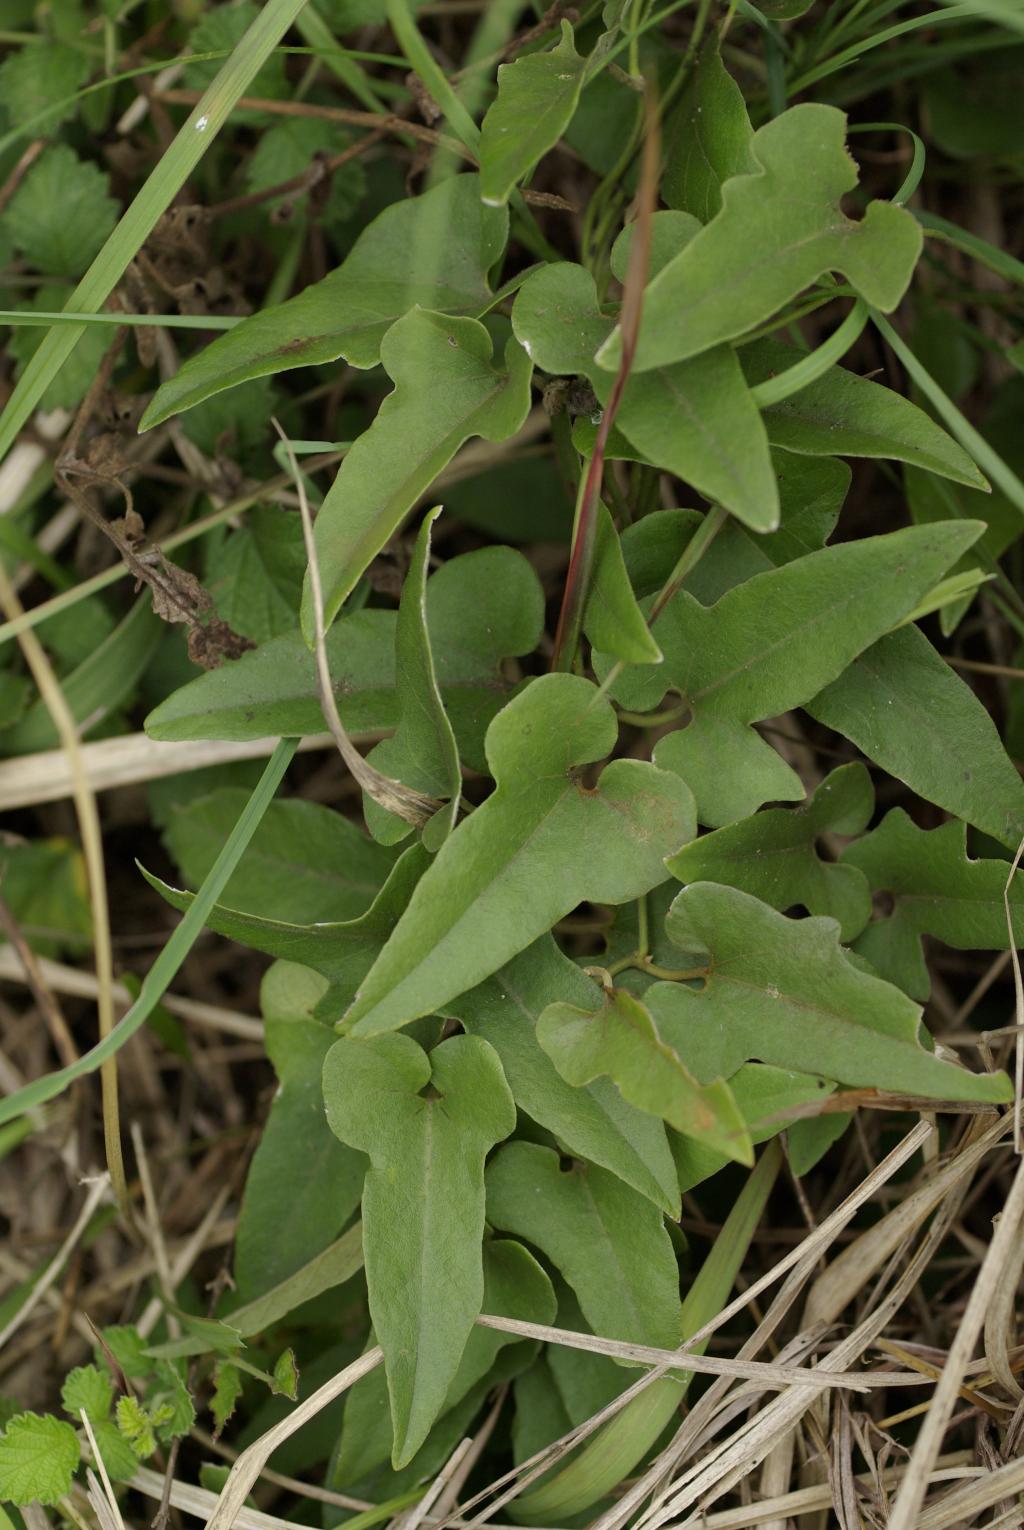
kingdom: Plantae
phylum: Tracheophyta
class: Magnoliopsida
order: Piperales
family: Aristolochiaceae
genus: Isotrema
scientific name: Isotrema kaempferi
